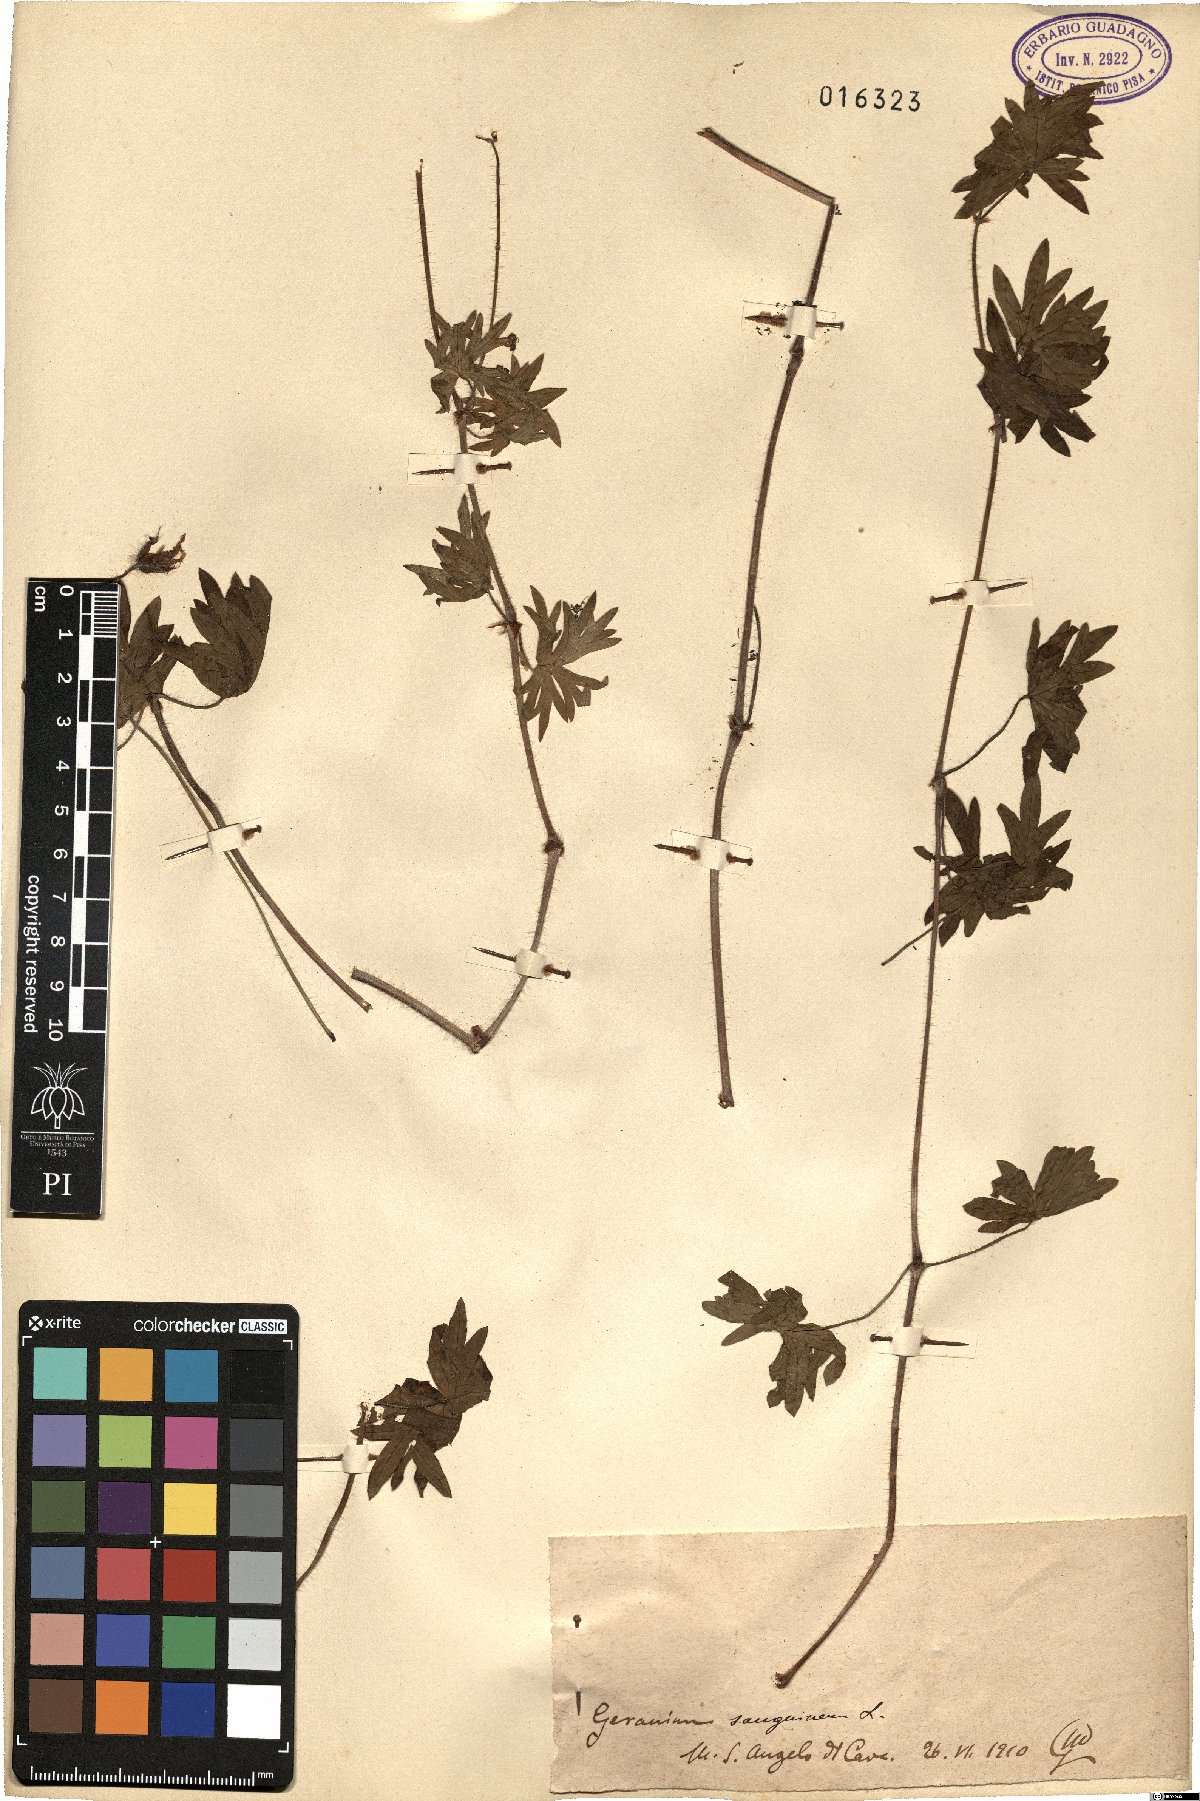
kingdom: Plantae
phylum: Tracheophyta
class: Magnoliopsida
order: Geraniales
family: Geraniaceae
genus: Geranium
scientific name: Geranium sanguineum
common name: Bloody crane's-bill
